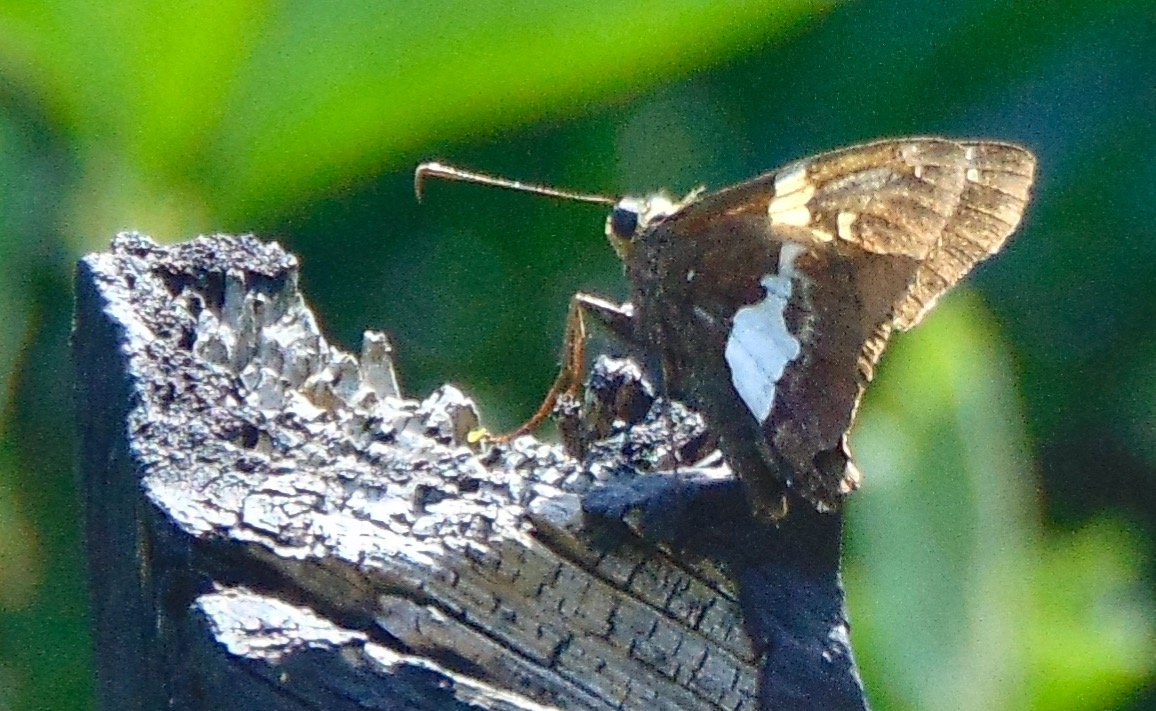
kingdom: Animalia
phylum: Arthropoda
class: Insecta
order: Lepidoptera
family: Hesperiidae
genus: Epargyreus
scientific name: Epargyreus clarus
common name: Silver-spotted Skipper
